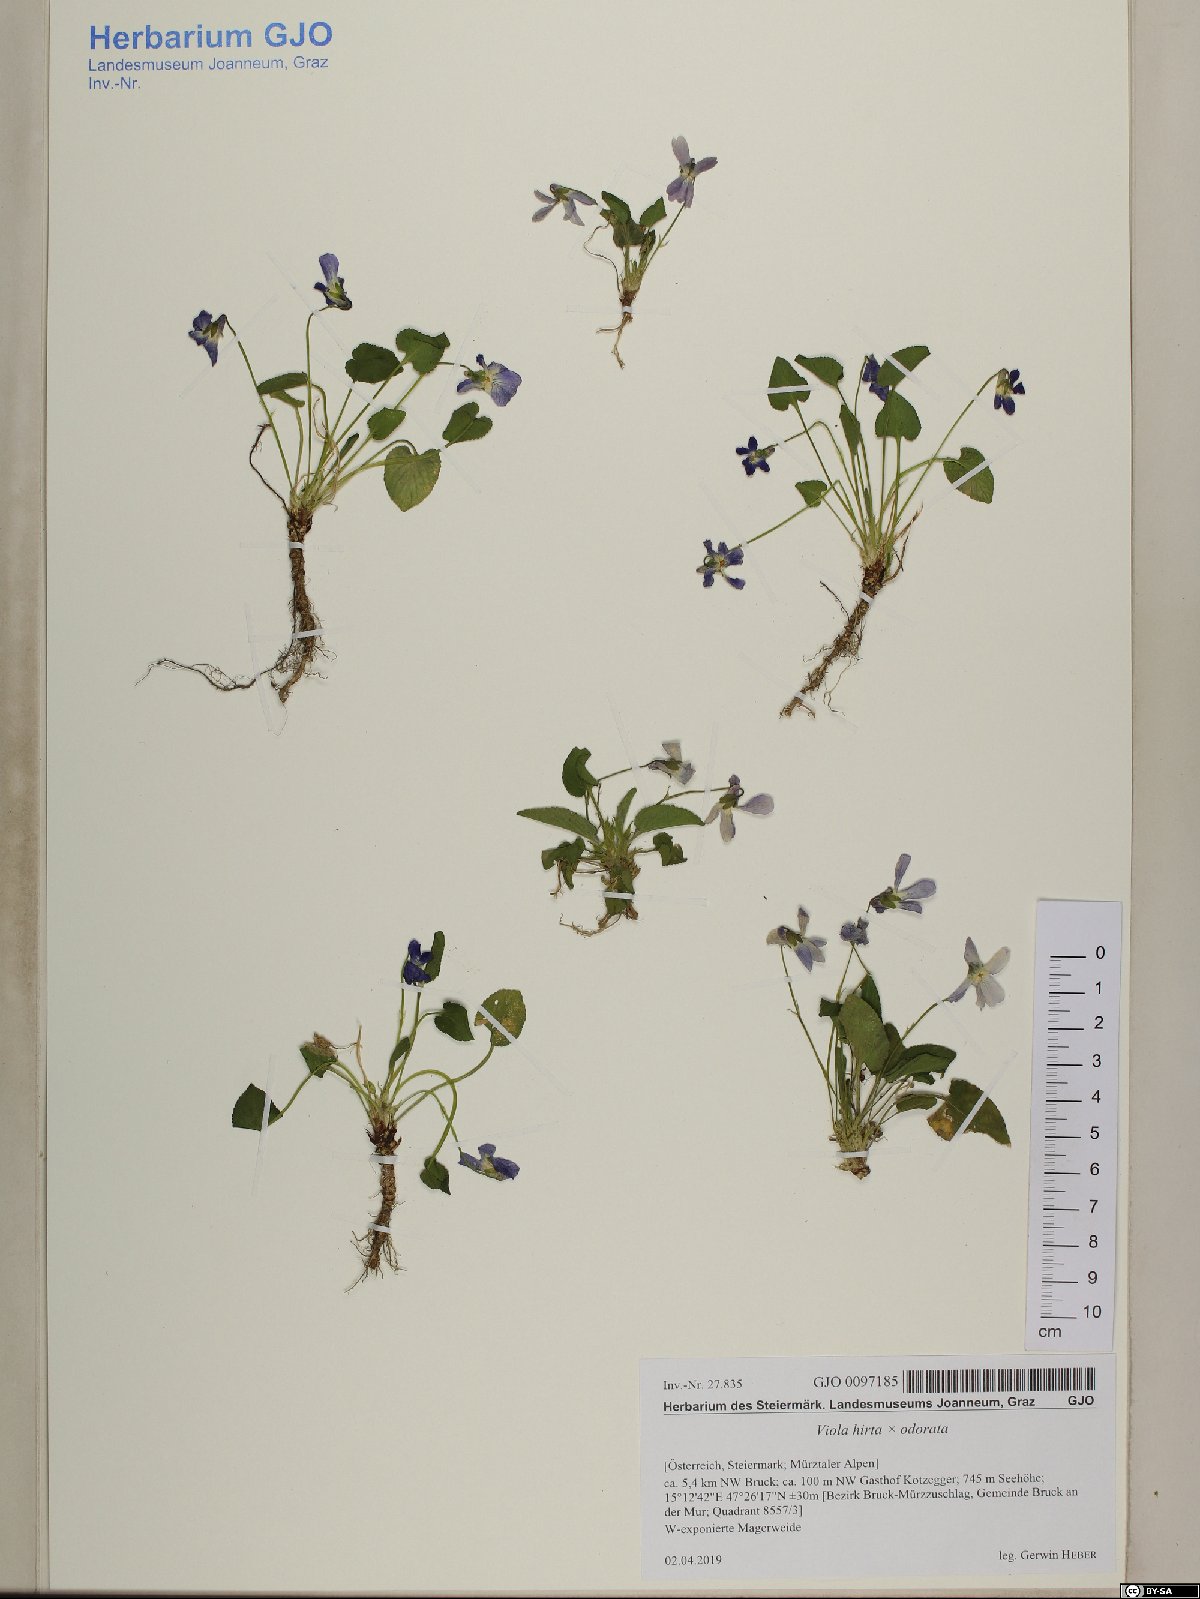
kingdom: Plantae
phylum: Tracheophyta
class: Magnoliopsida
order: Malpighiales
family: Violaceae
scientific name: Violaceae
